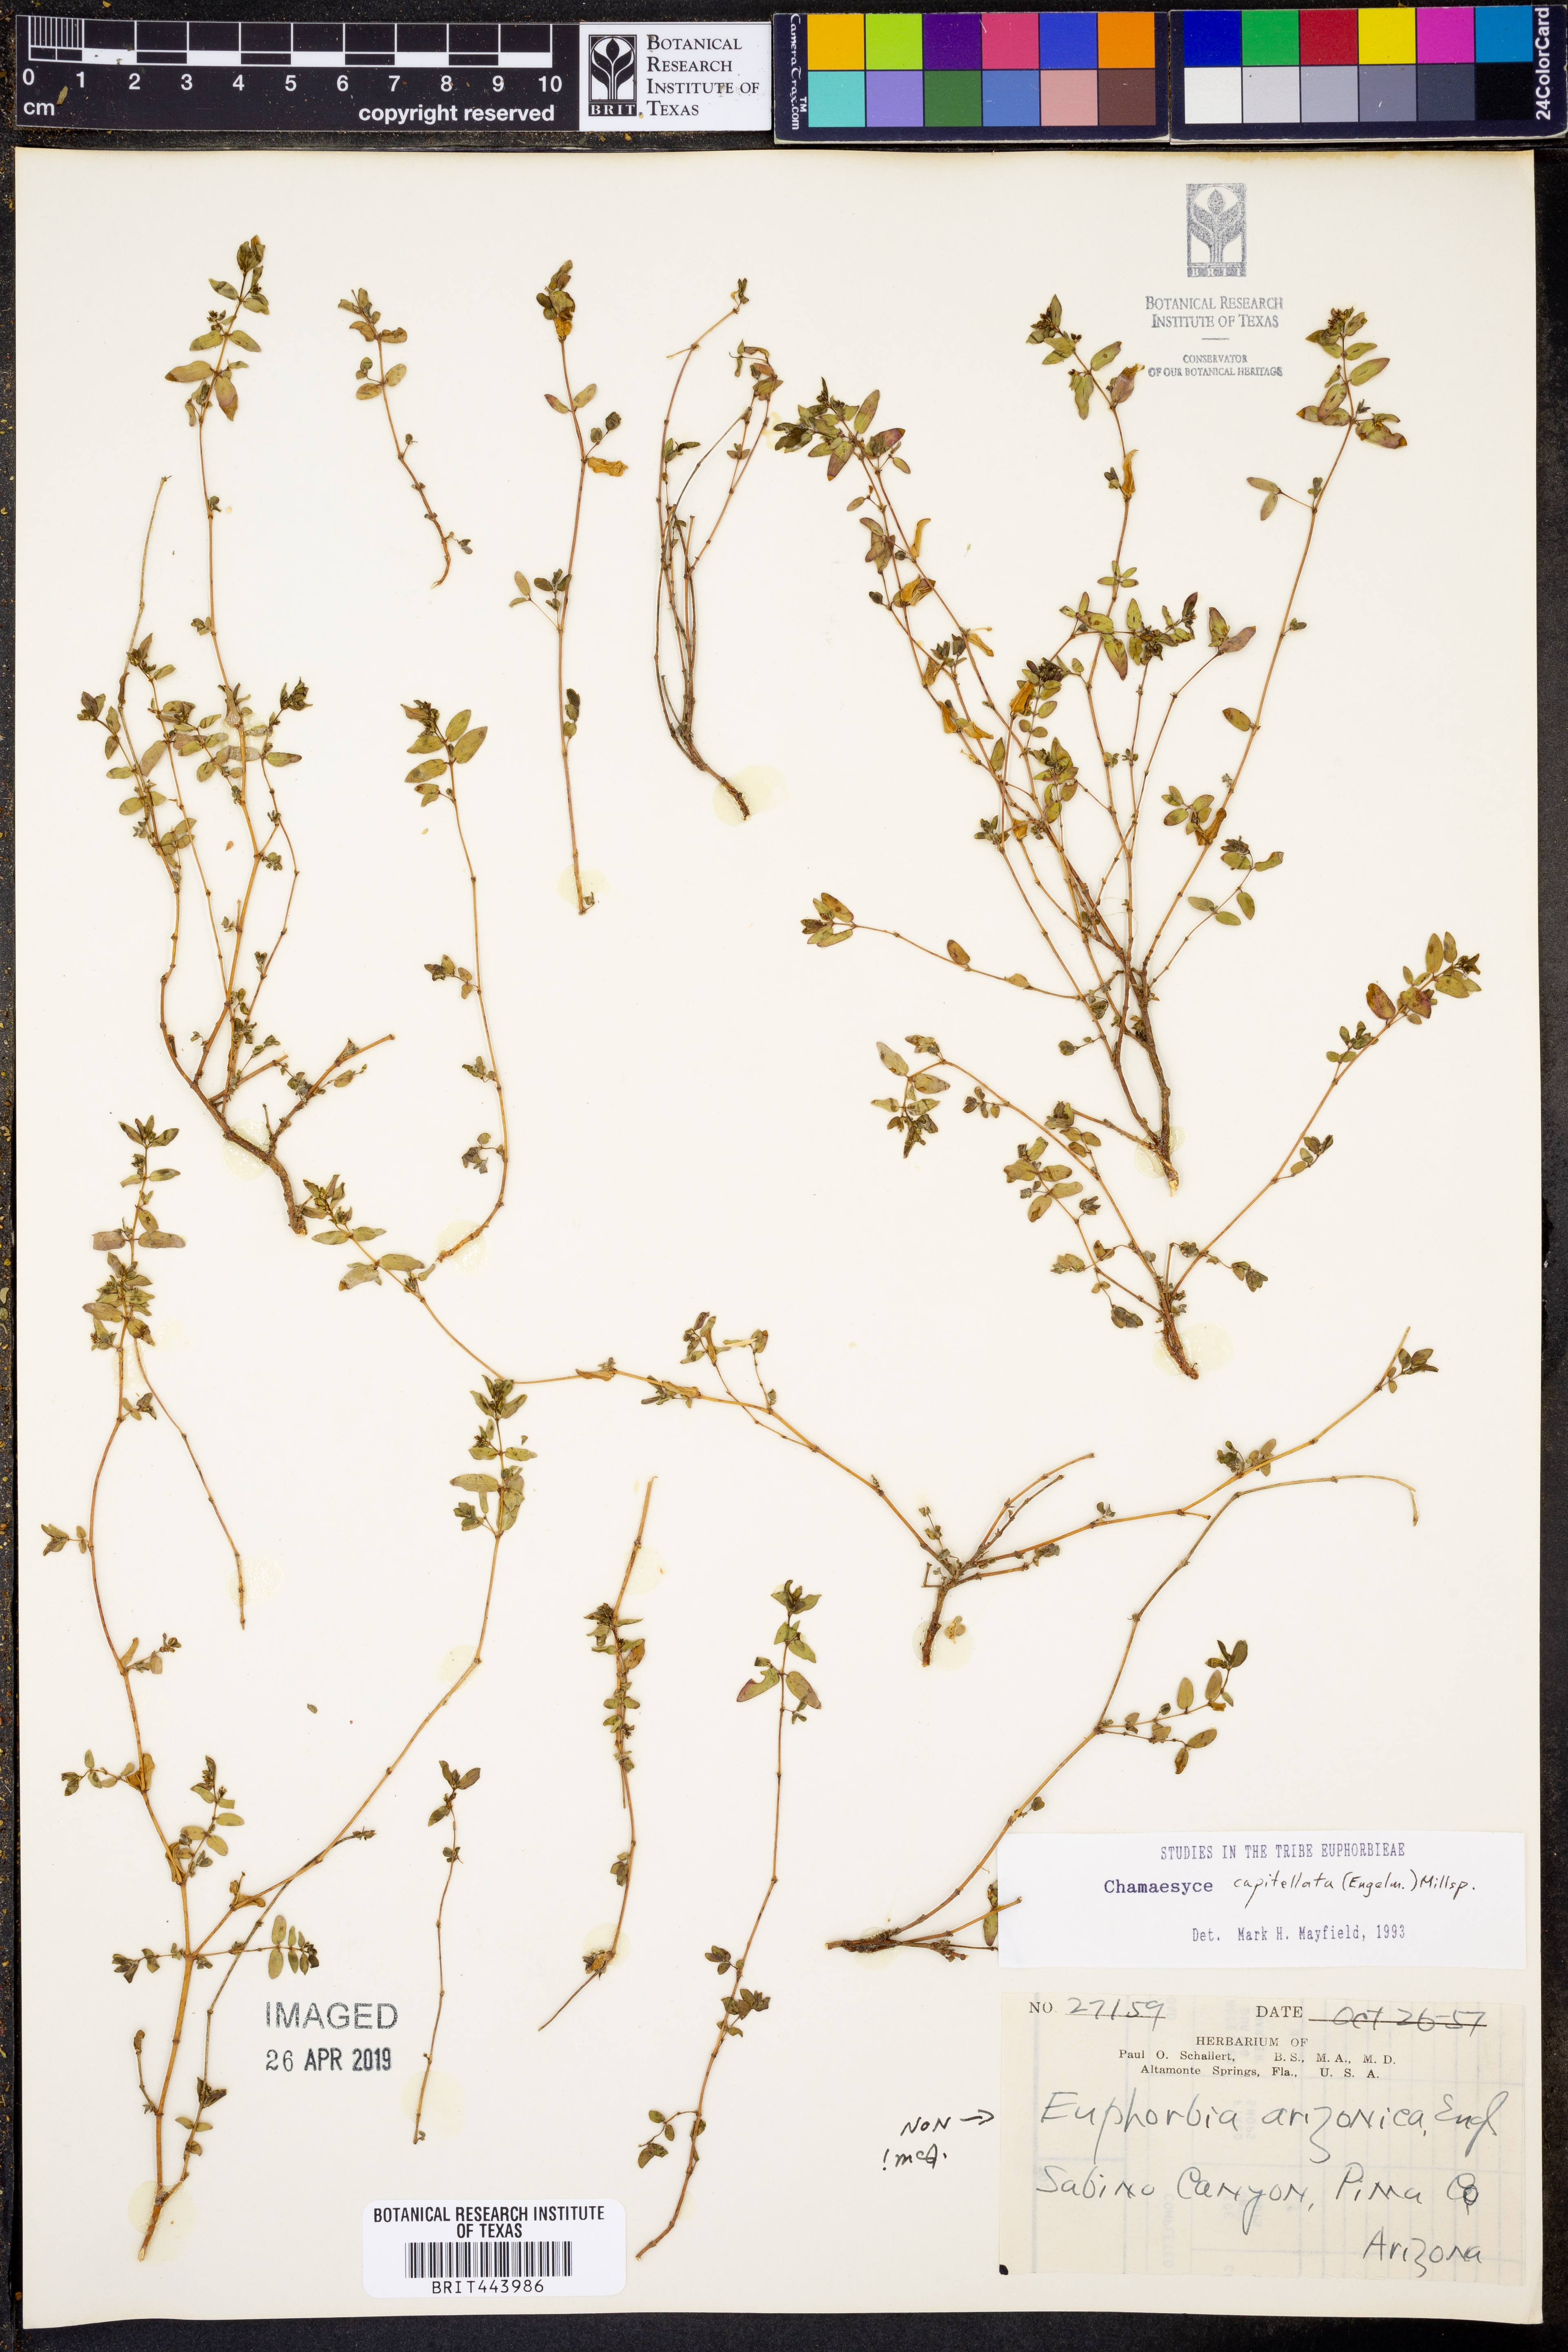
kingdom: Plantae
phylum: Tracheophyta
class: Magnoliopsida
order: Malpighiales
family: Euphorbiaceae
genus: Euphorbia
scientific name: Euphorbia capitellata
